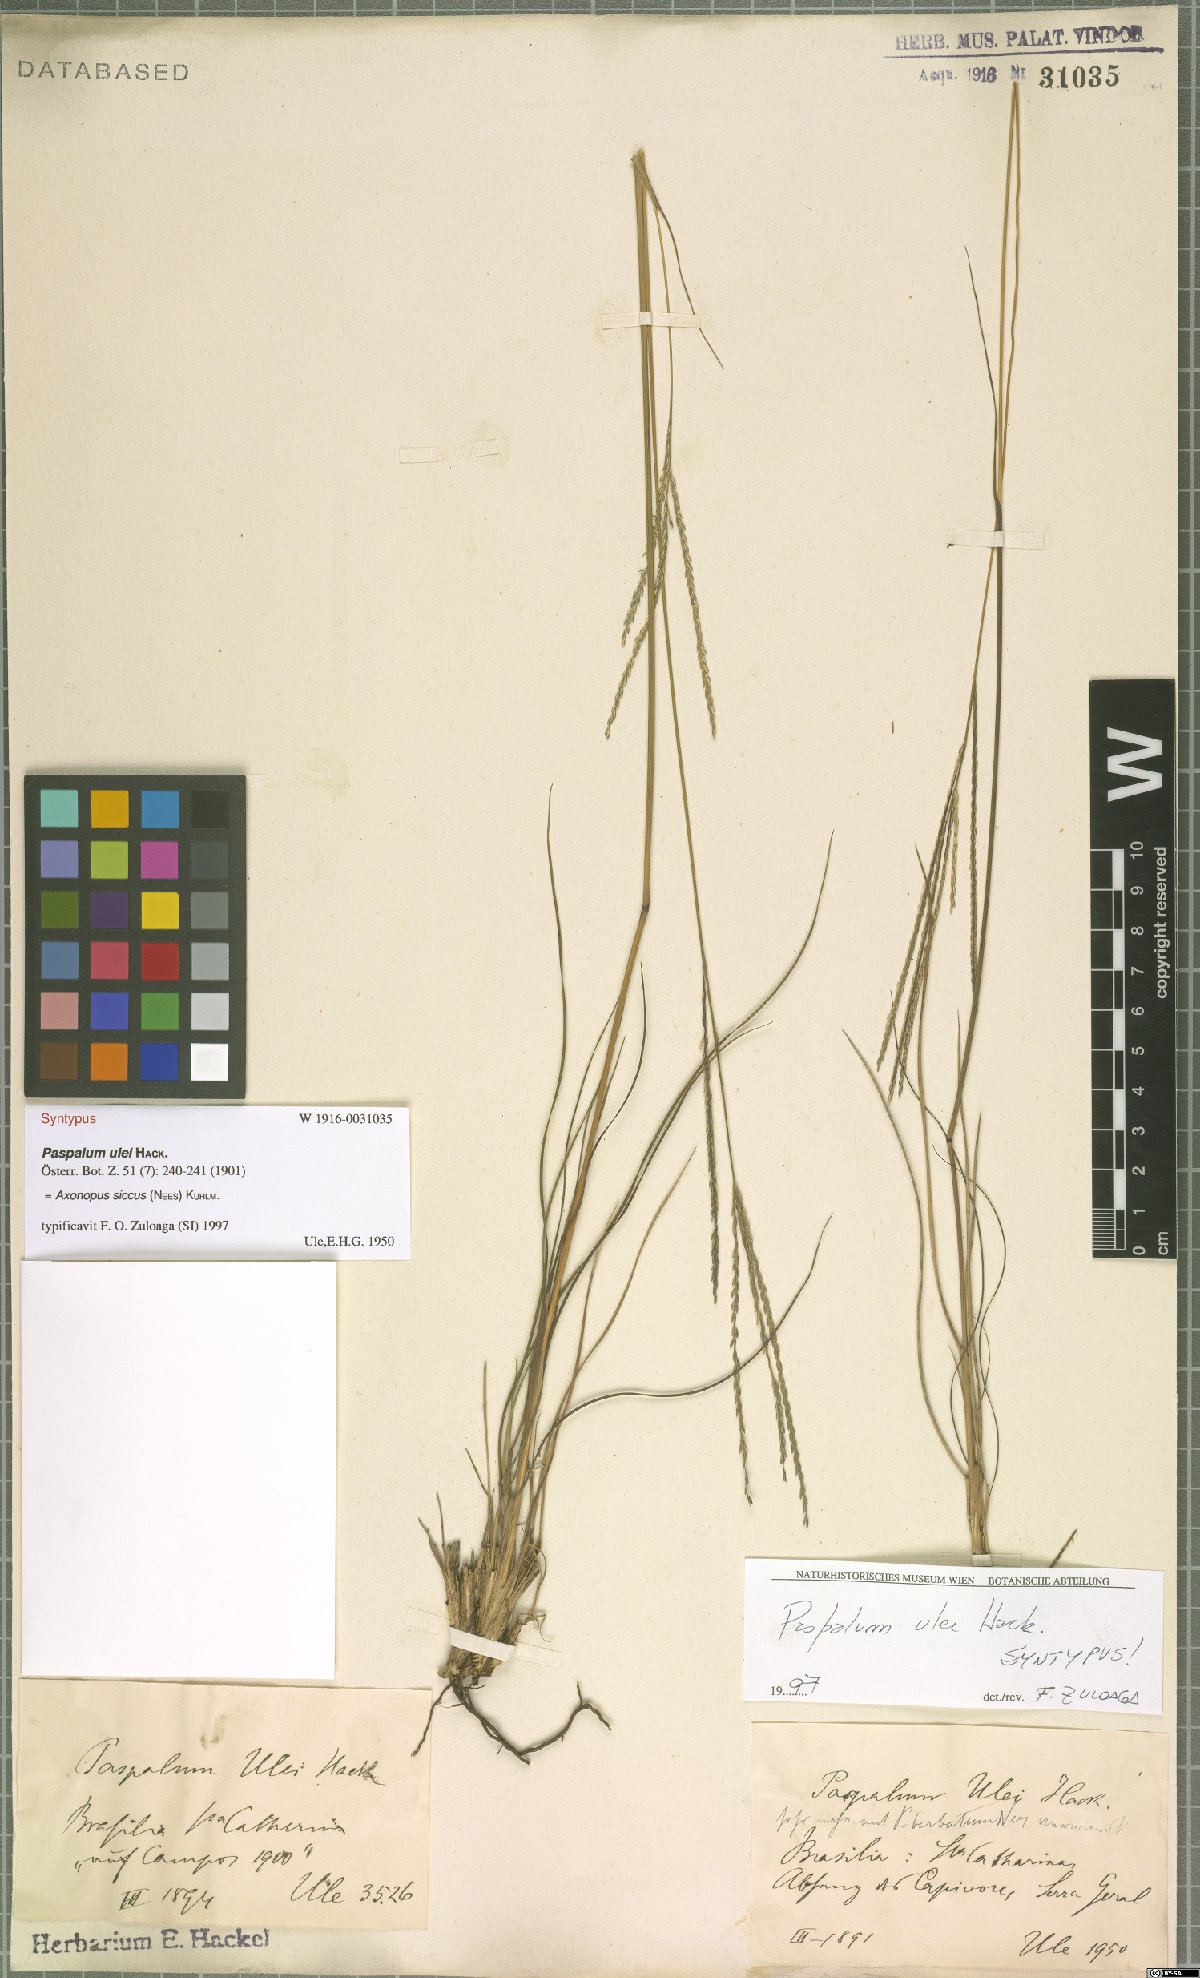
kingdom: Plantae
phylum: Tracheophyta
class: Liliopsida
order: Poales
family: Poaceae
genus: Axonopus
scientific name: Axonopus siccus
